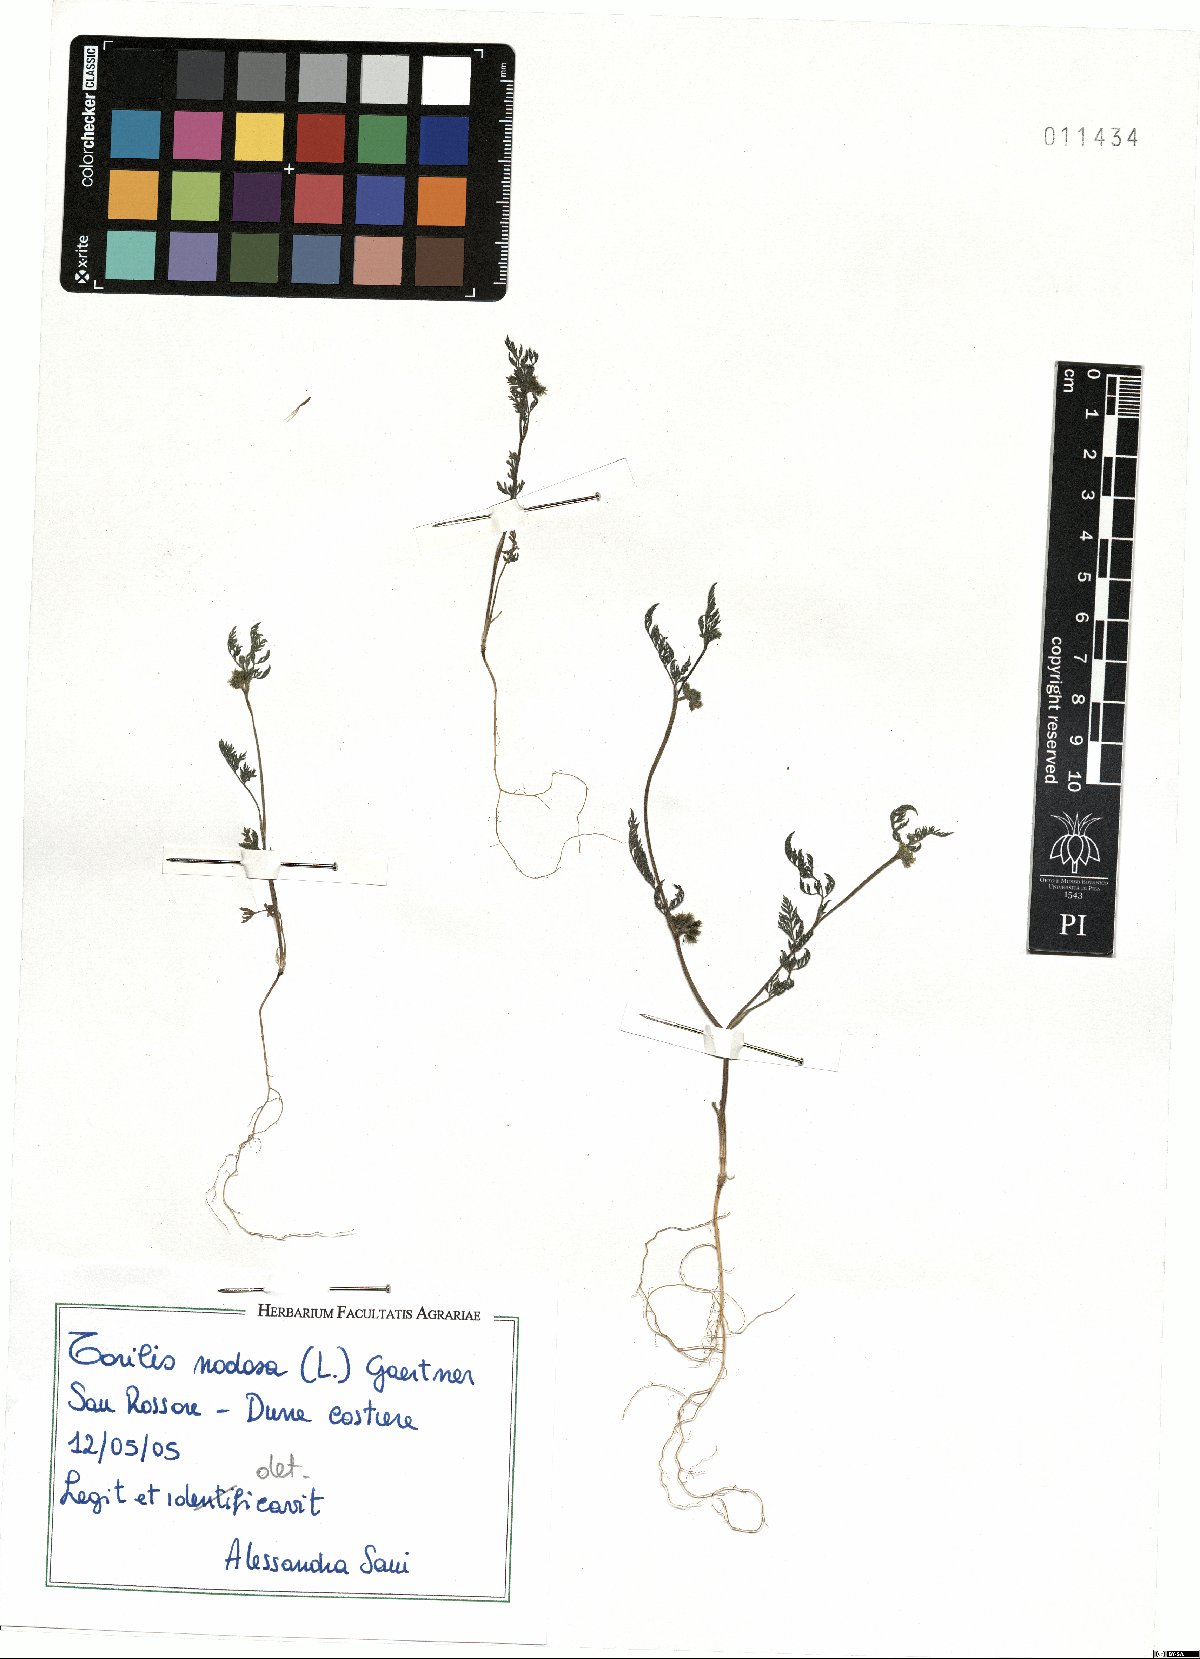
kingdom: Plantae
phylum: Tracheophyta
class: Magnoliopsida
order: Apiales
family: Apiaceae
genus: Torilis
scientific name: Torilis nodosa
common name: Knotted hedge-parsley
